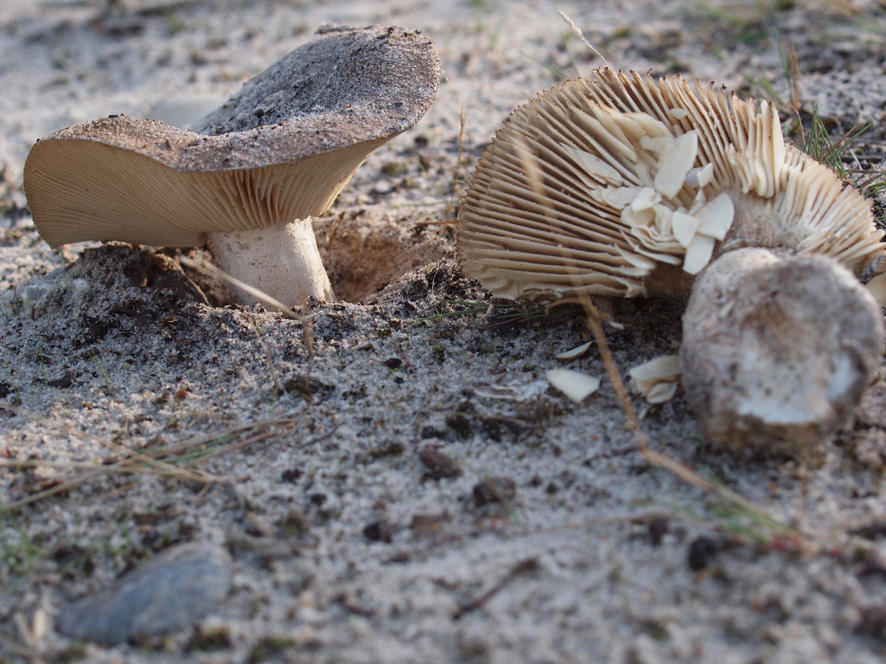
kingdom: Fungi
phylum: Basidiomycota
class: Agaricomycetes
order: Russulales
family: Russulaceae
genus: Russula
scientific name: Russula adusta
